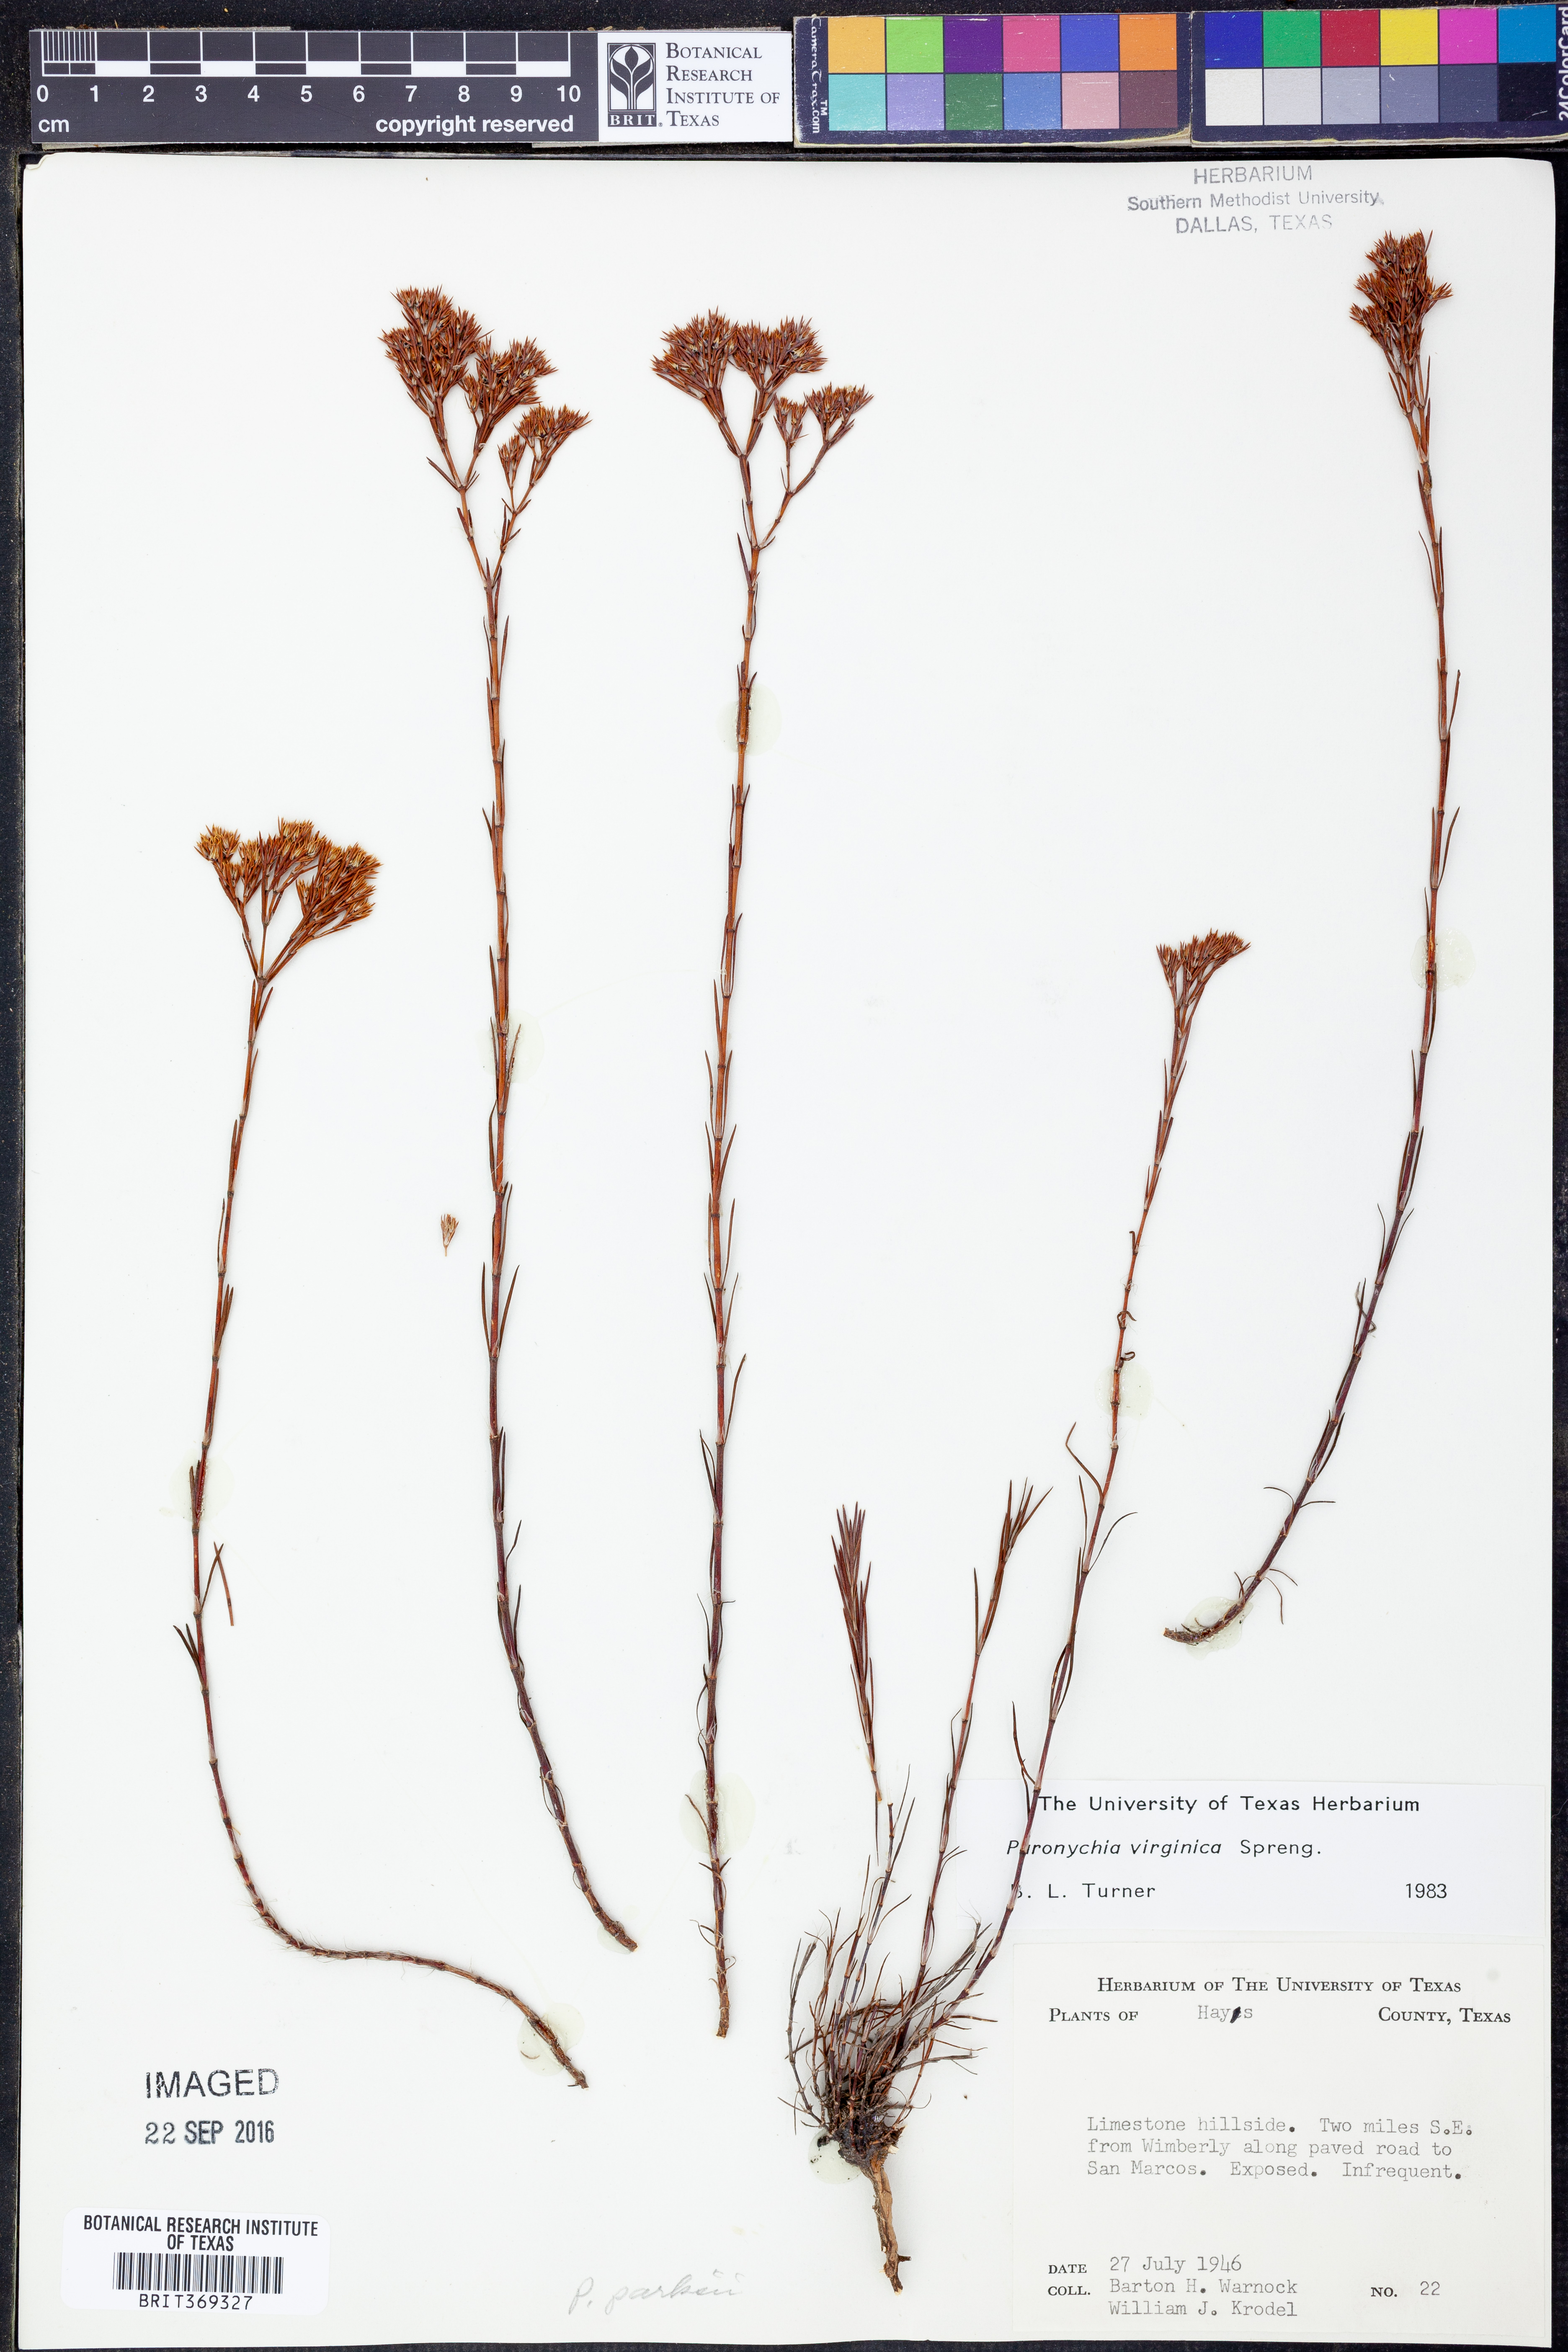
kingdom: Plantae
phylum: Tracheophyta
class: Magnoliopsida
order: Caryophyllales
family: Caryophyllaceae
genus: Paronychia
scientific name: Paronychia virginica
